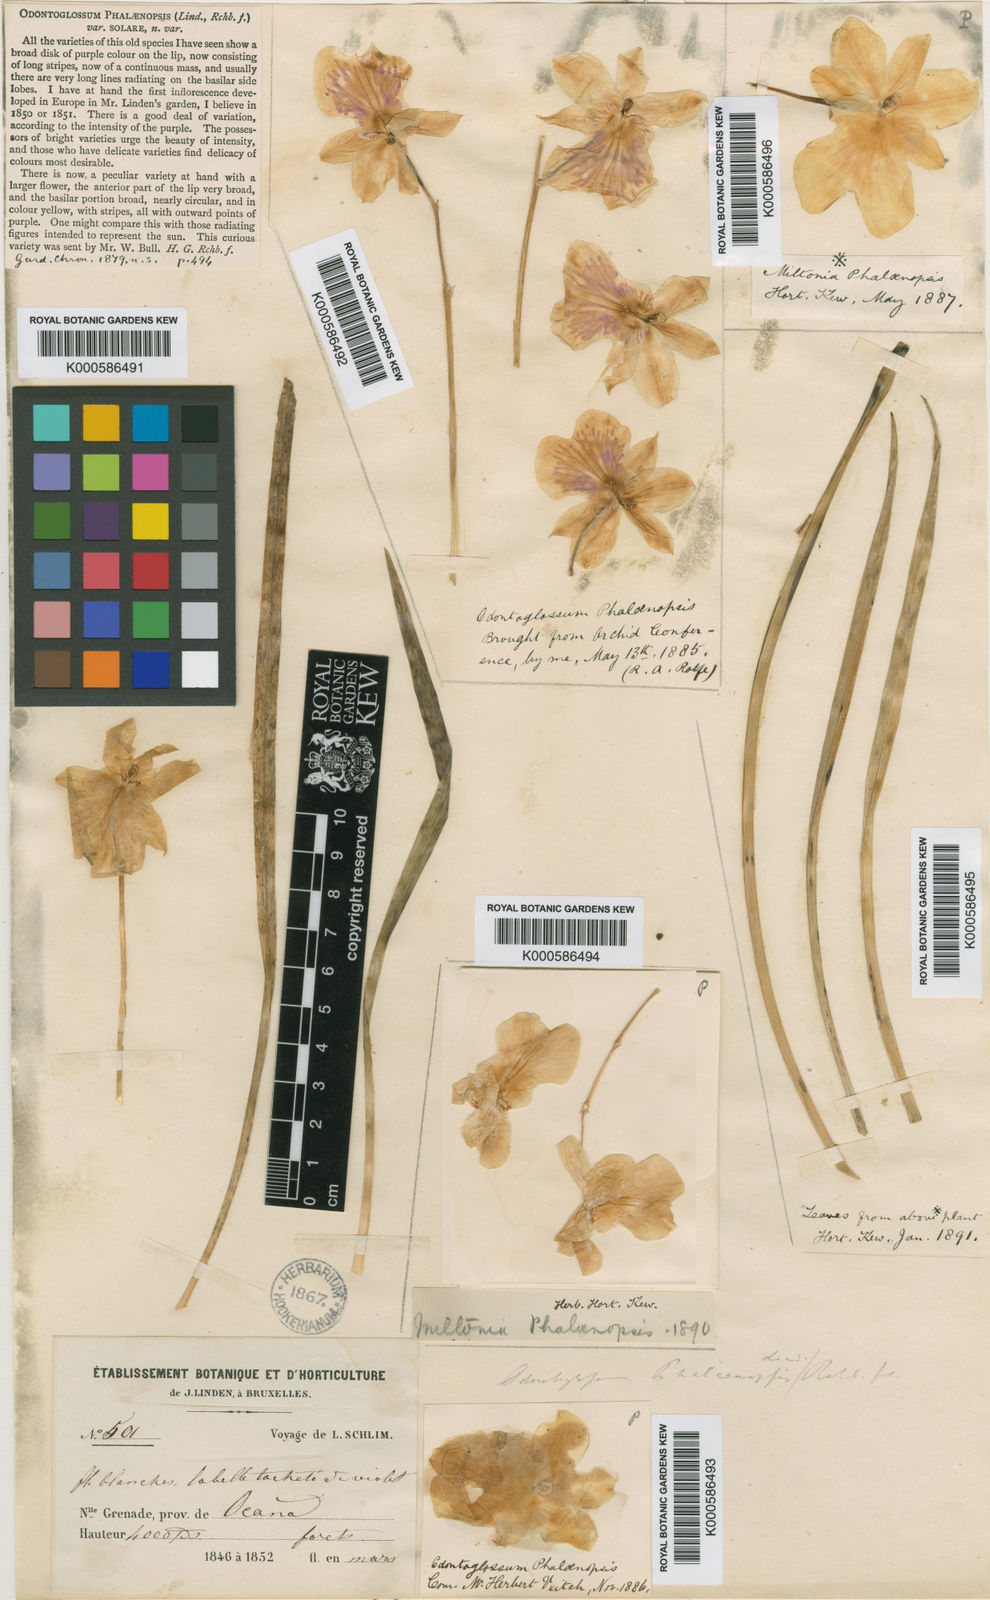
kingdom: Plantae
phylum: Tracheophyta
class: Liliopsida
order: Asparagales
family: Orchidaceae
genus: Miltoniopsis
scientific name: Miltoniopsis phalaenopsis
